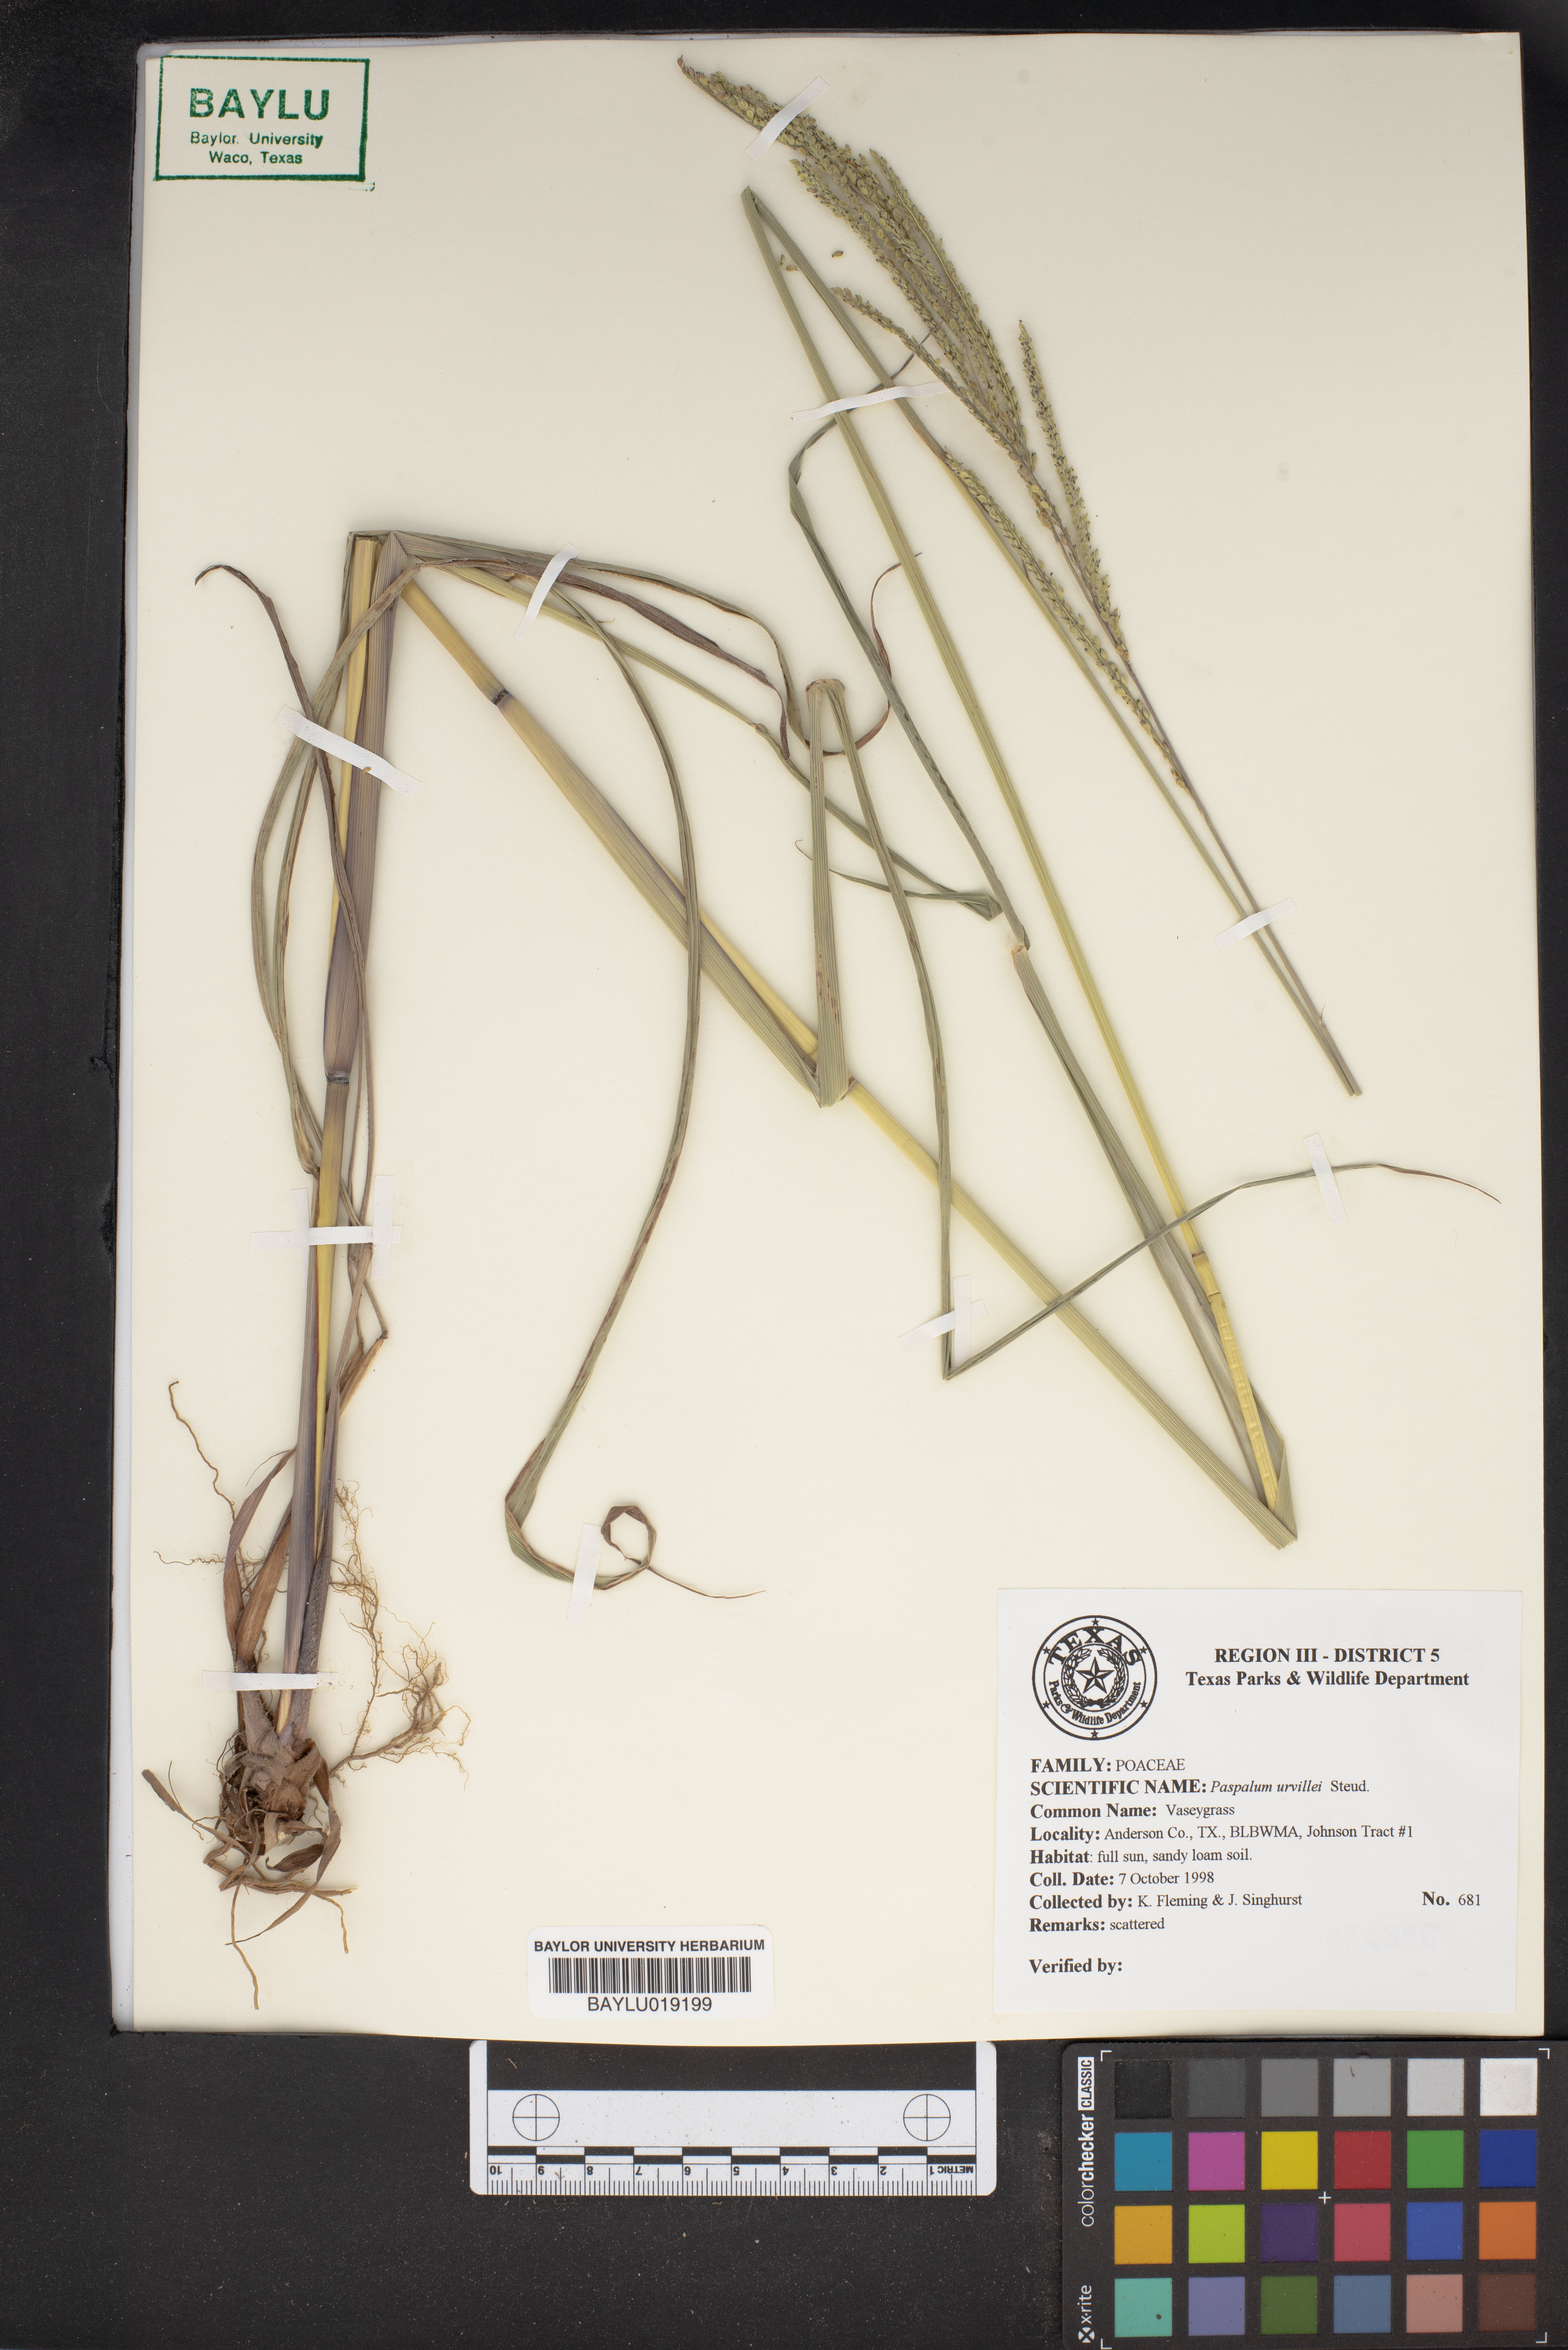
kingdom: Plantae
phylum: Tracheophyta
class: Liliopsida
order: Poales
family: Poaceae
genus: Paspalum
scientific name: Paspalum urvillei
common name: Vasey's grass
